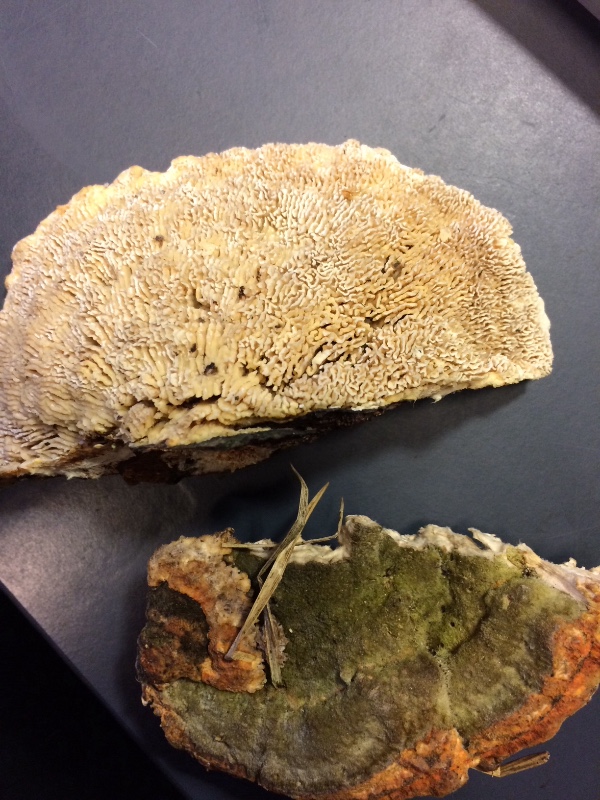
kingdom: Fungi
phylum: Basidiomycota
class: Agaricomycetes
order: Polyporales
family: Polyporaceae
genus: Lenzites
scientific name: Lenzites betulinus
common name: birke-læderporesvamp
